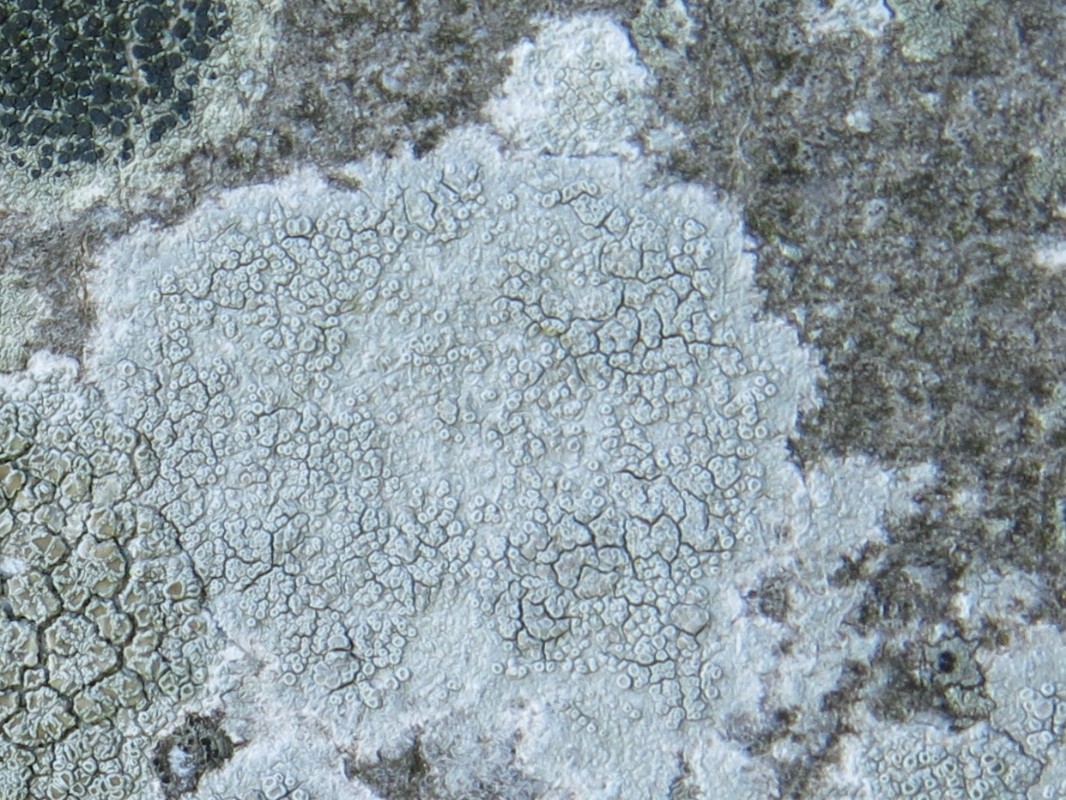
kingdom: Fungi
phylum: Ascomycota
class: Lecanoromycetes
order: Lecanorales
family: Lecanoraceae
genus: Glaucomaria
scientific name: Glaucomaria carpinea
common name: hviddugget kantskivelav
